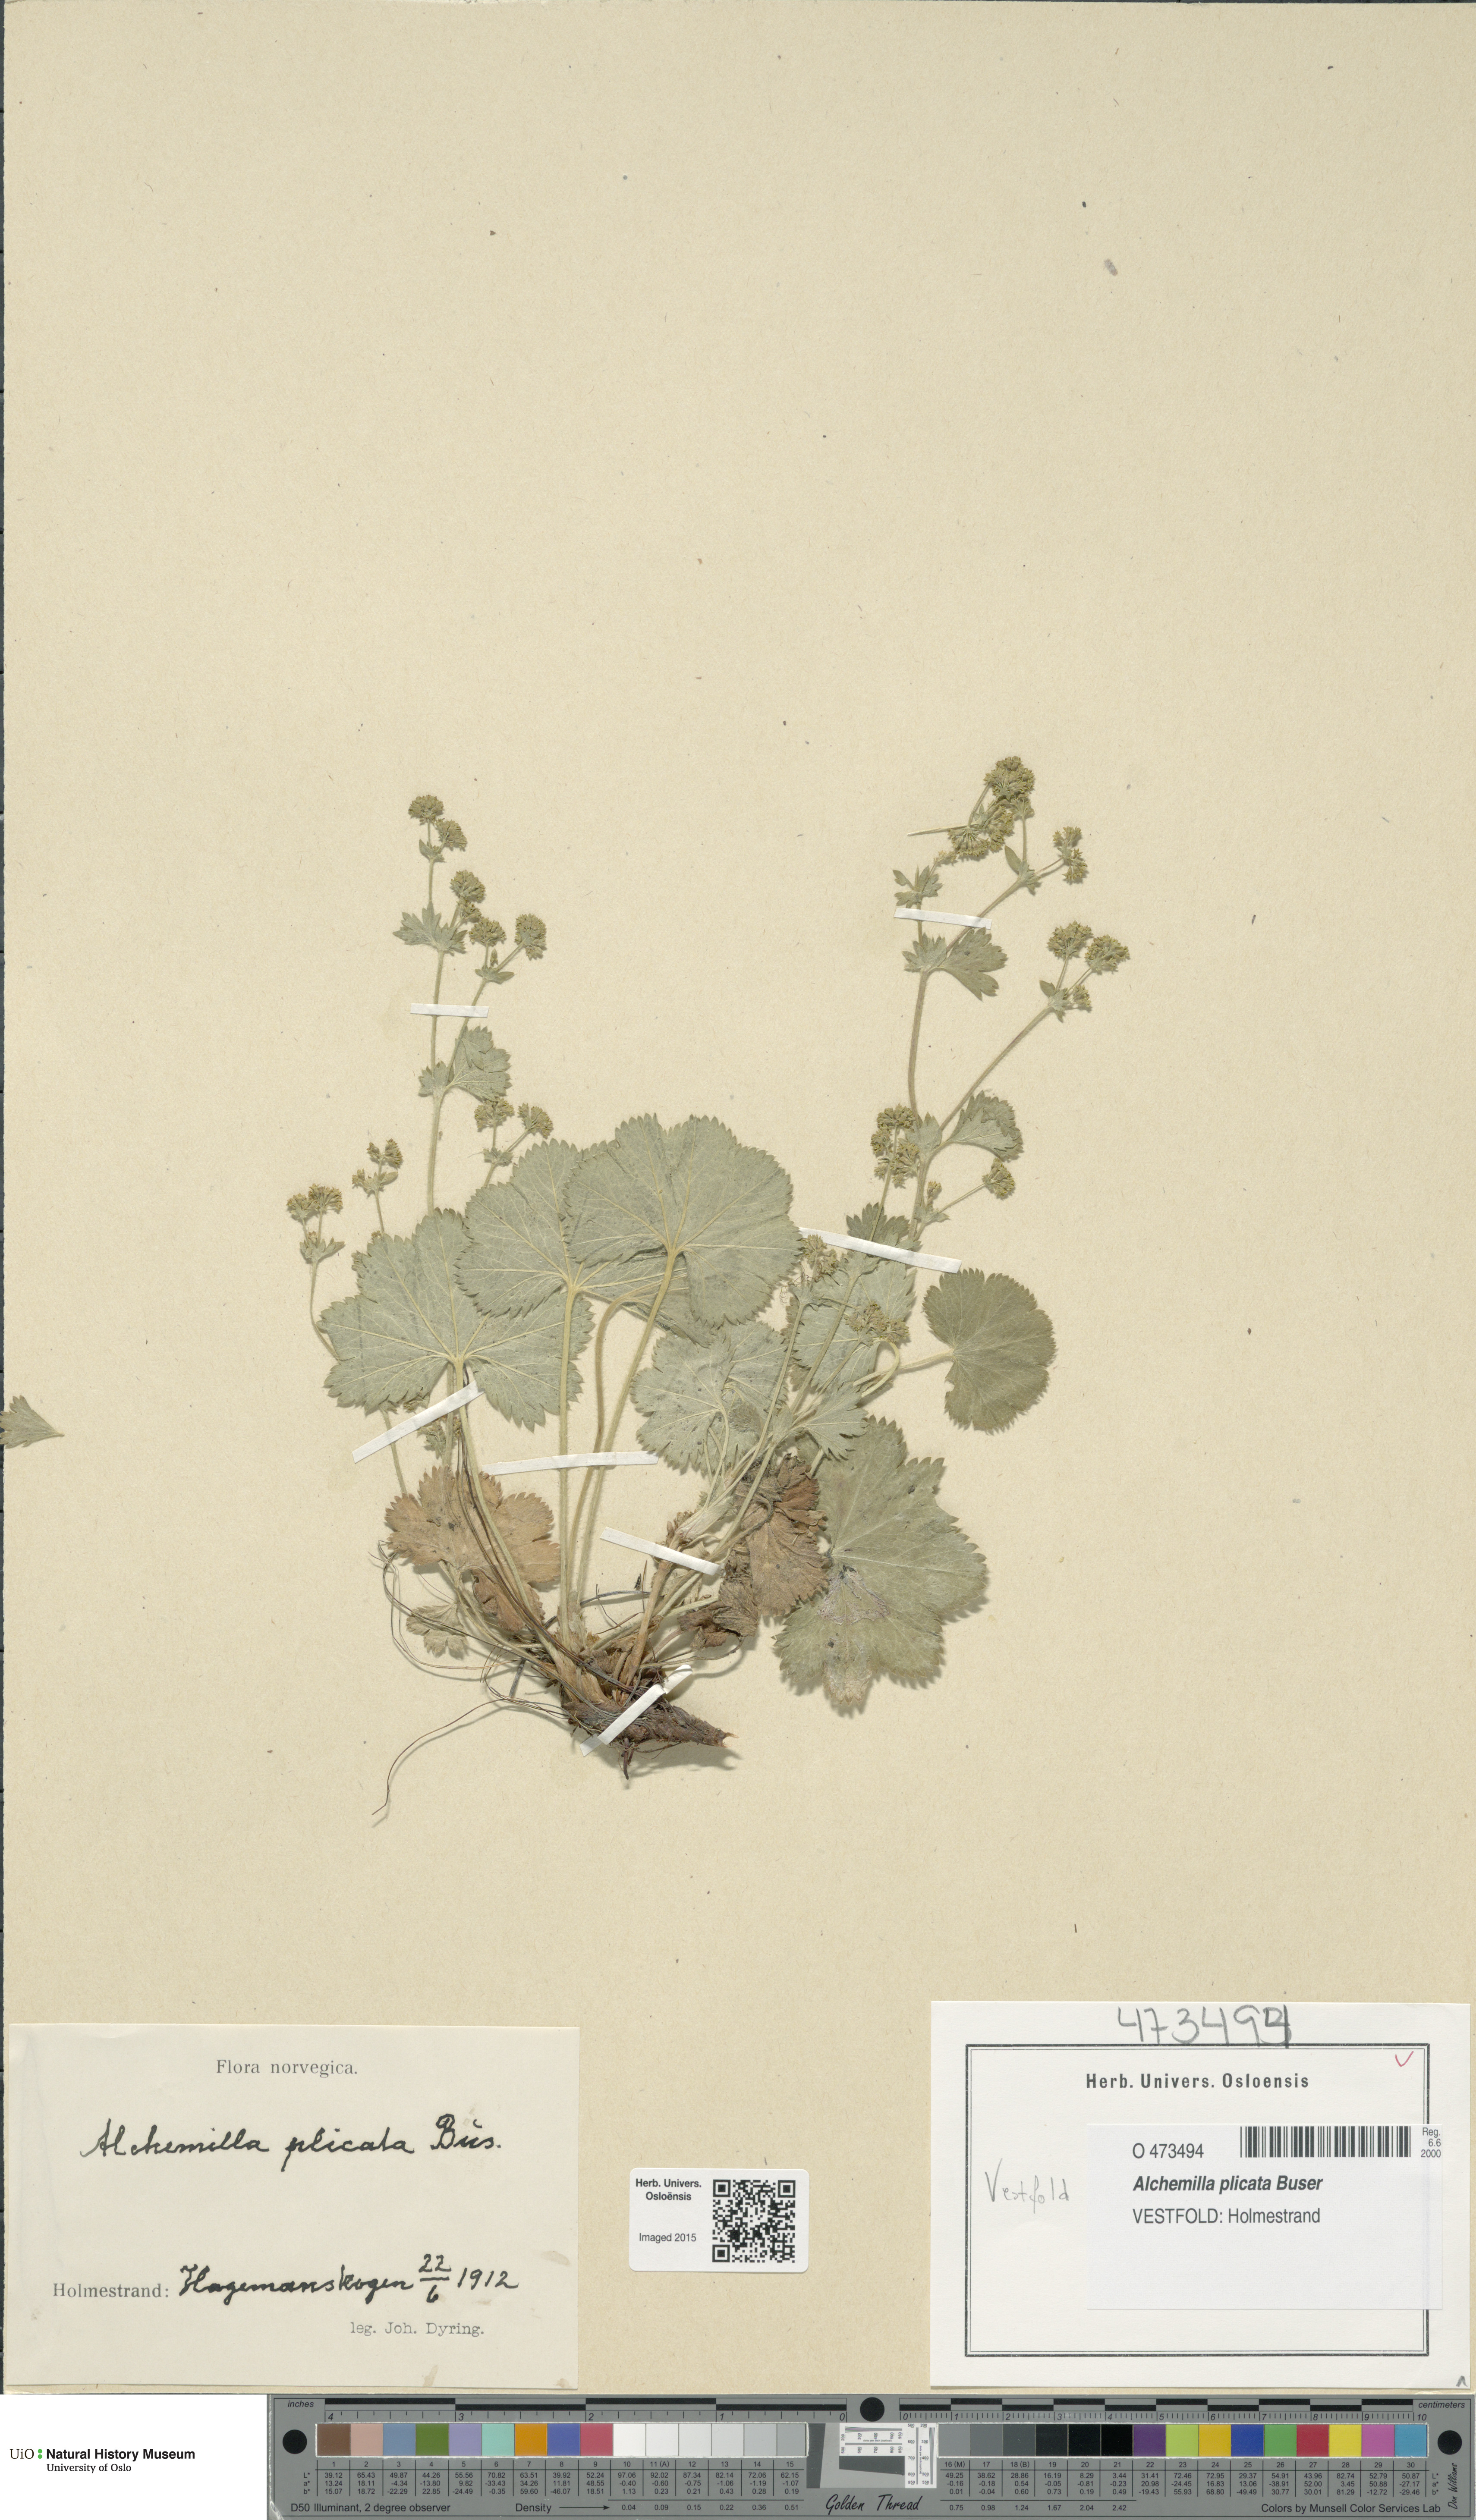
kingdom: Plantae
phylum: Tracheophyta
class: Magnoliopsida
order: Rosales
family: Rosaceae
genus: Alchemilla
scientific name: Alchemilla plicata
